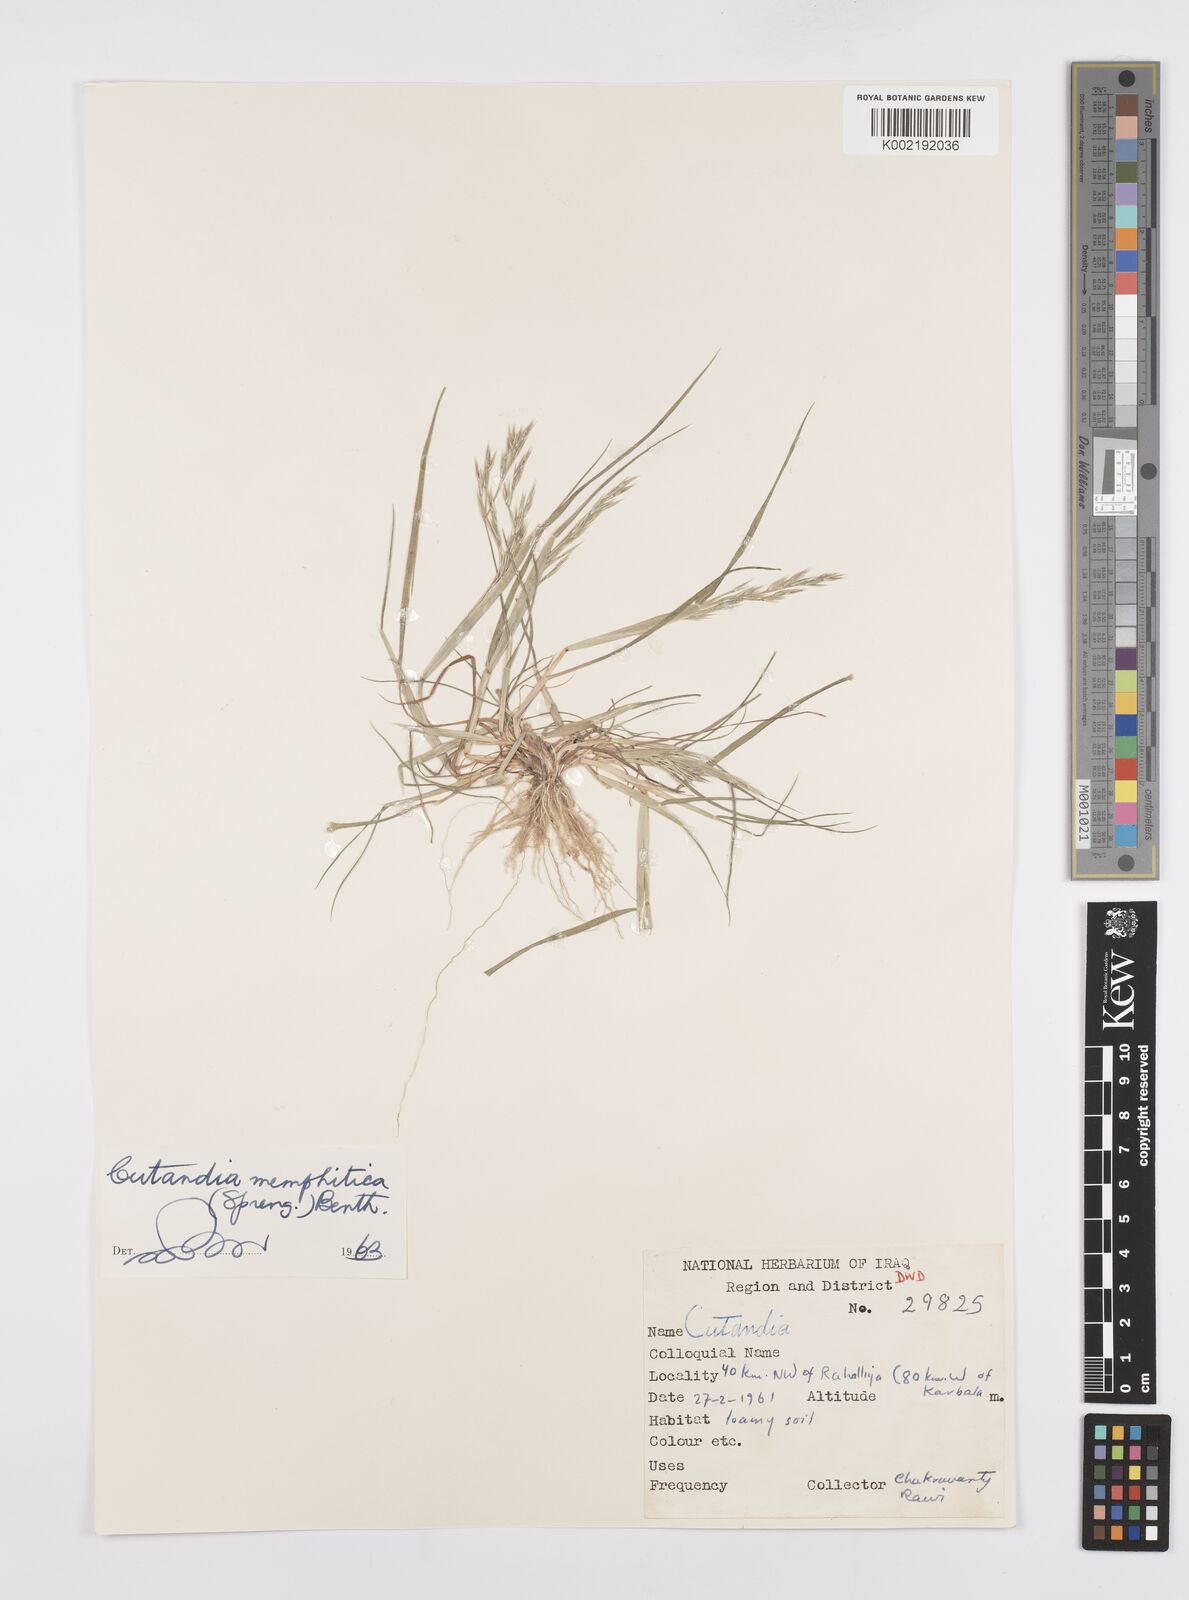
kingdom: Plantae
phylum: Tracheophyta
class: Liliopsida
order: Poales
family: Poaceae
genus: Cutandia
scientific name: Cutandia memphitica
